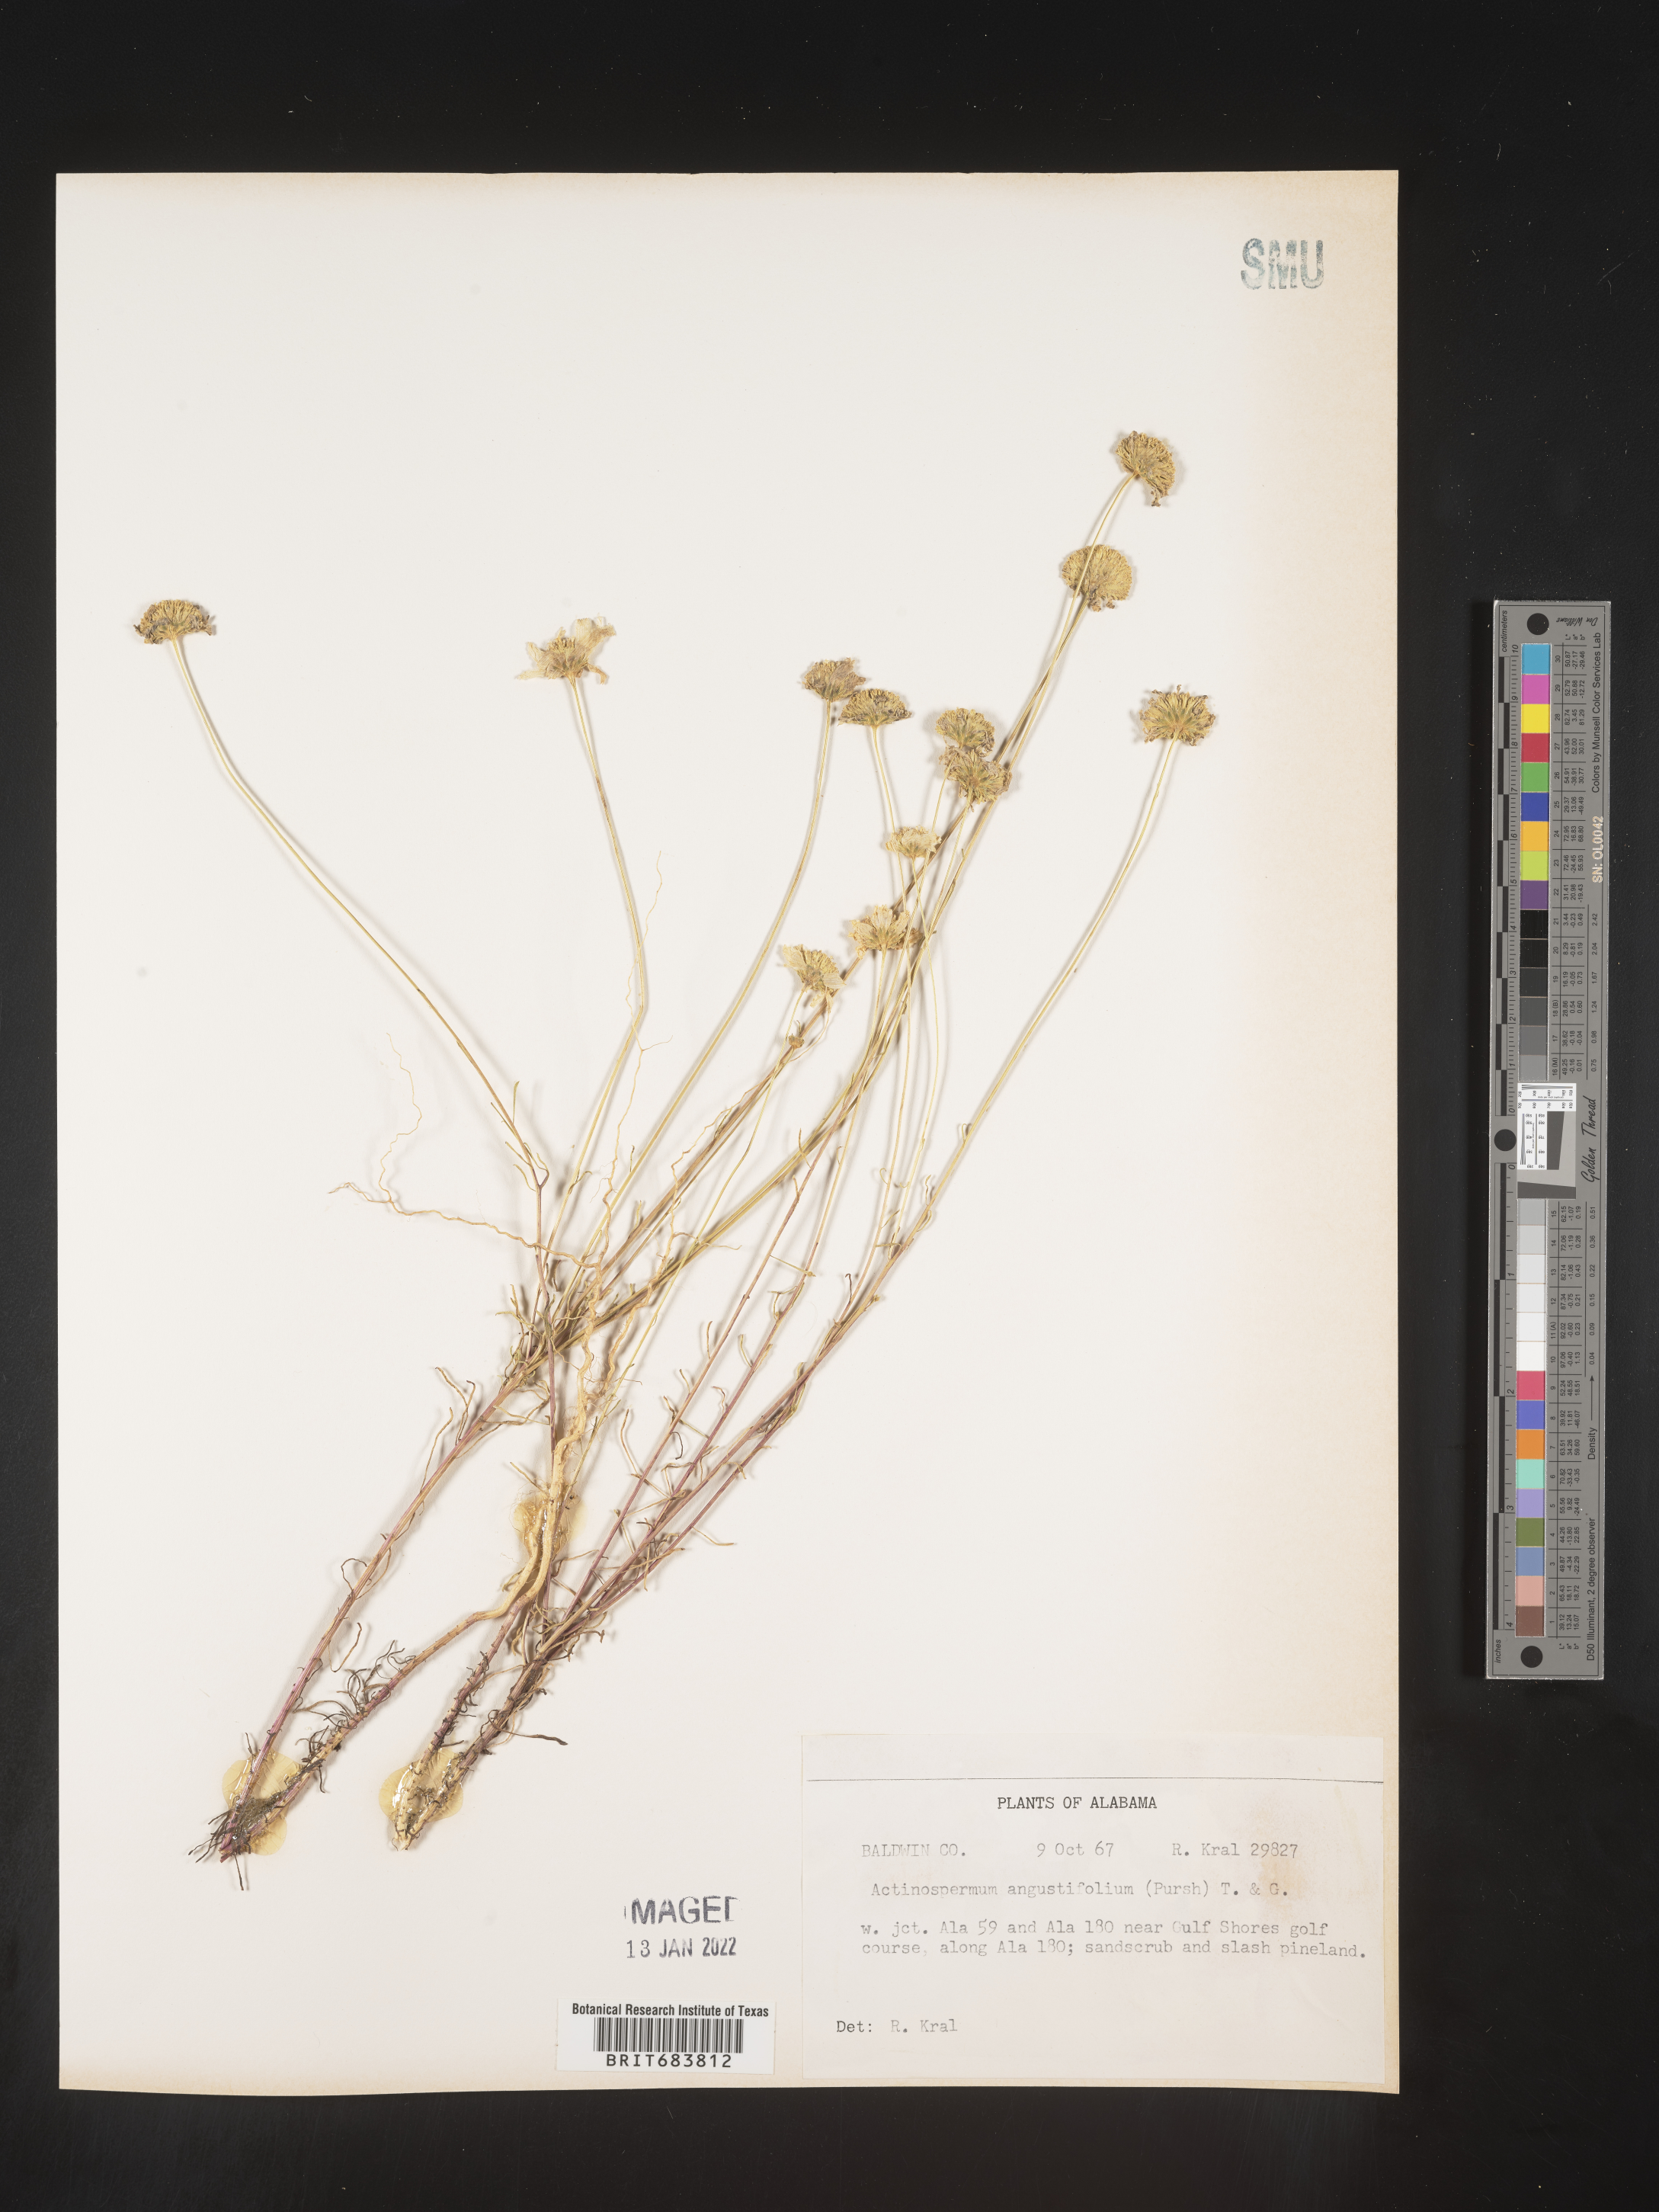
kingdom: Plantae
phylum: Tracheophyta
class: Magnoliopsida
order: Asterales
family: Asteraceae
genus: Balduina
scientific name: Balduina angustifolia
